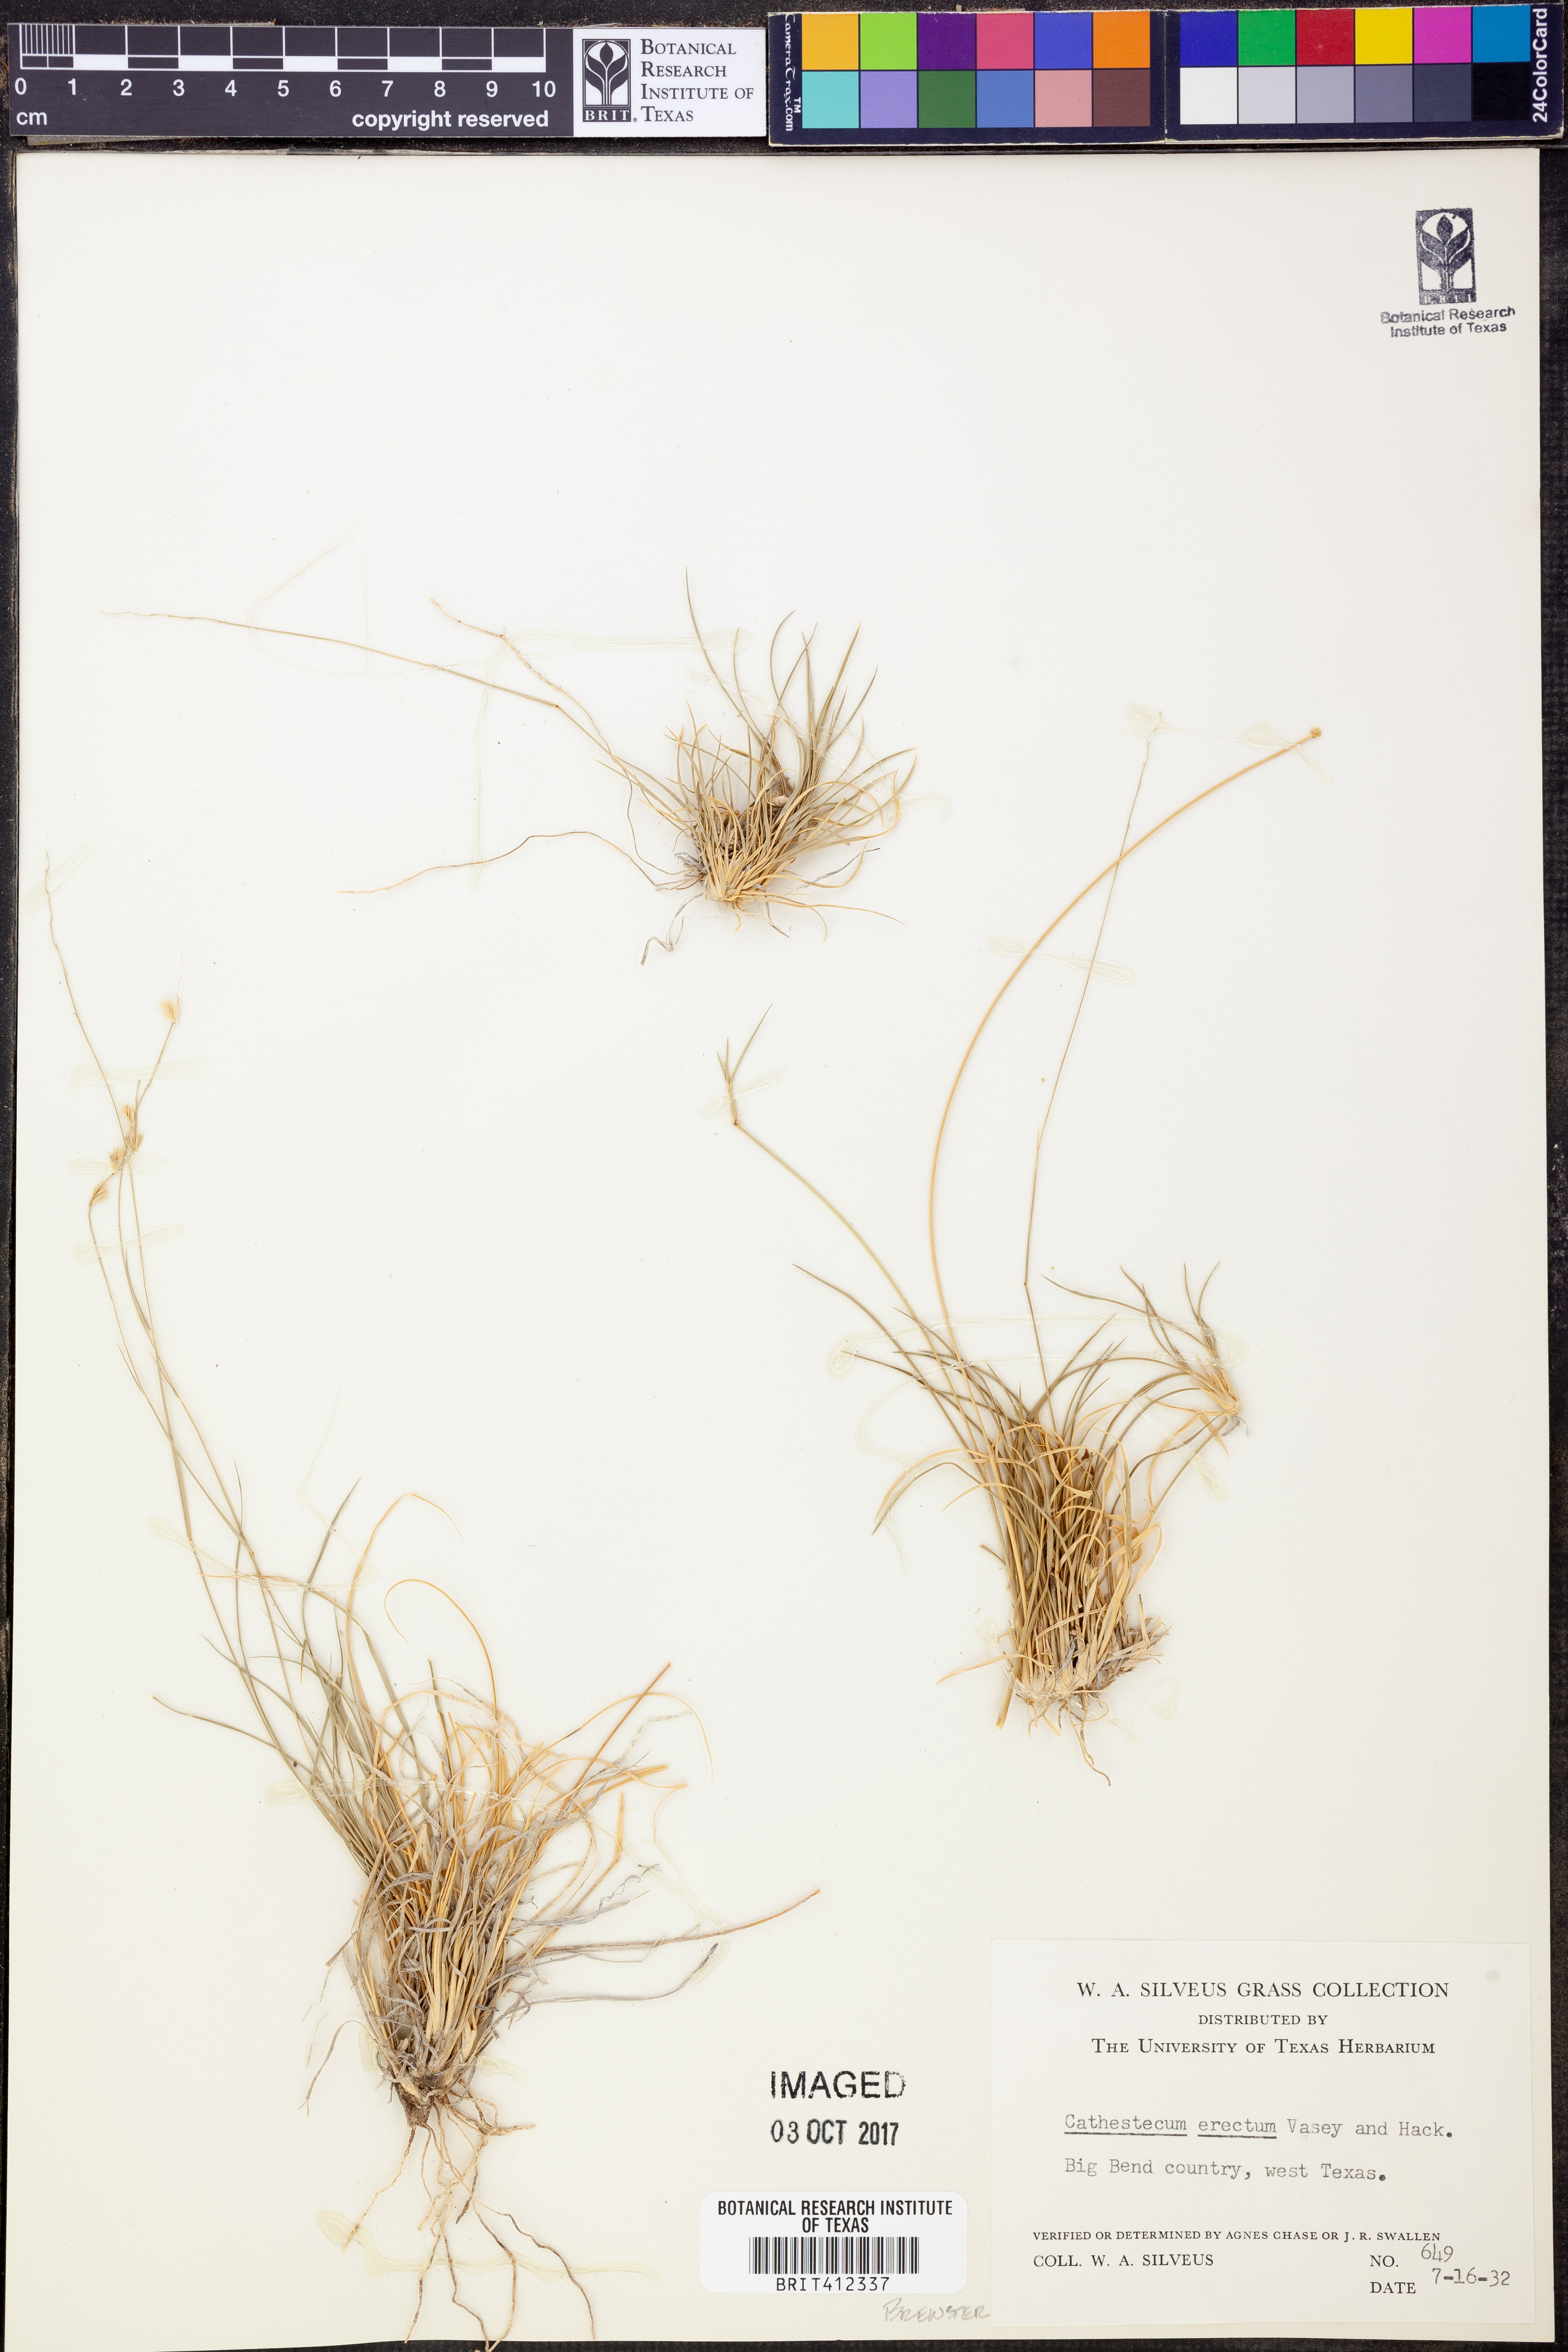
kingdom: Plantae
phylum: Tracheophyta
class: Liliopsida
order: Poales
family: Poaceae
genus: Bouteloua
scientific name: Bouteloua erecta
